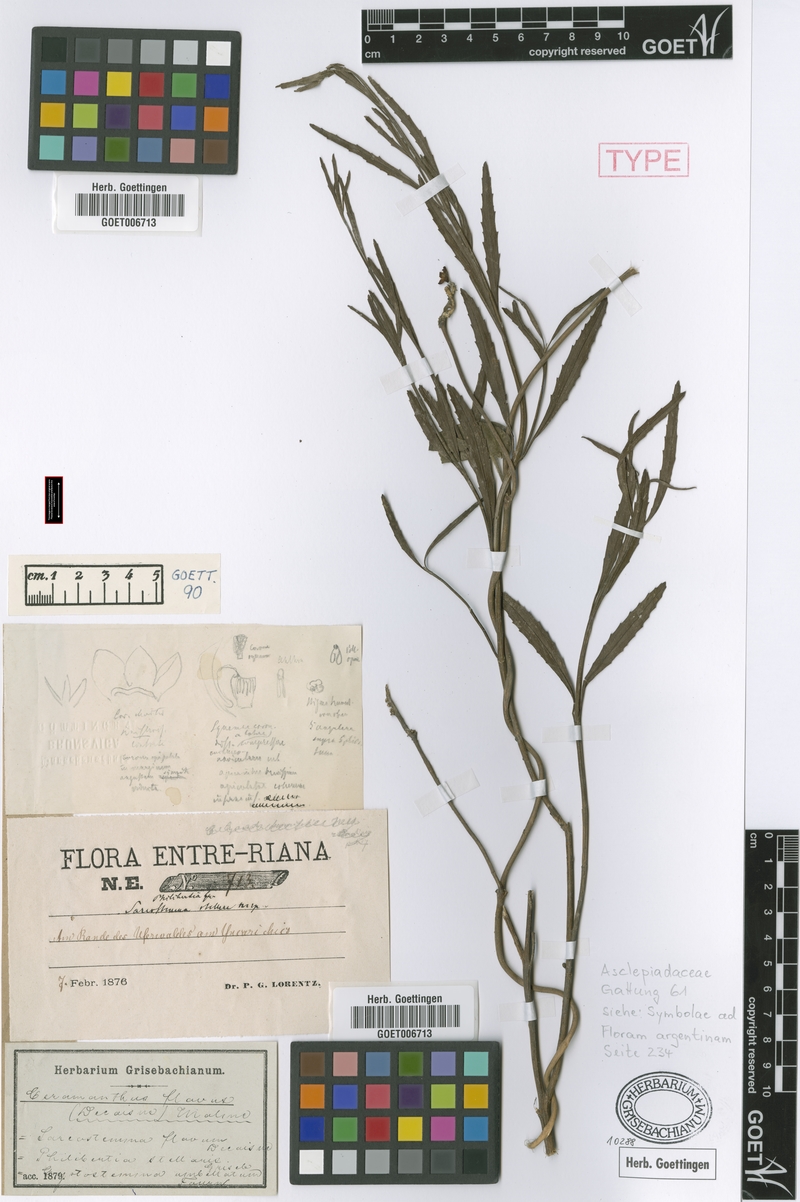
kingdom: Plantae
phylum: Tracheophyta
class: Magnoliopsida
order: Gentianales
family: Apocynaceae
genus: Funastrum
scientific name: Funastrum flavum
